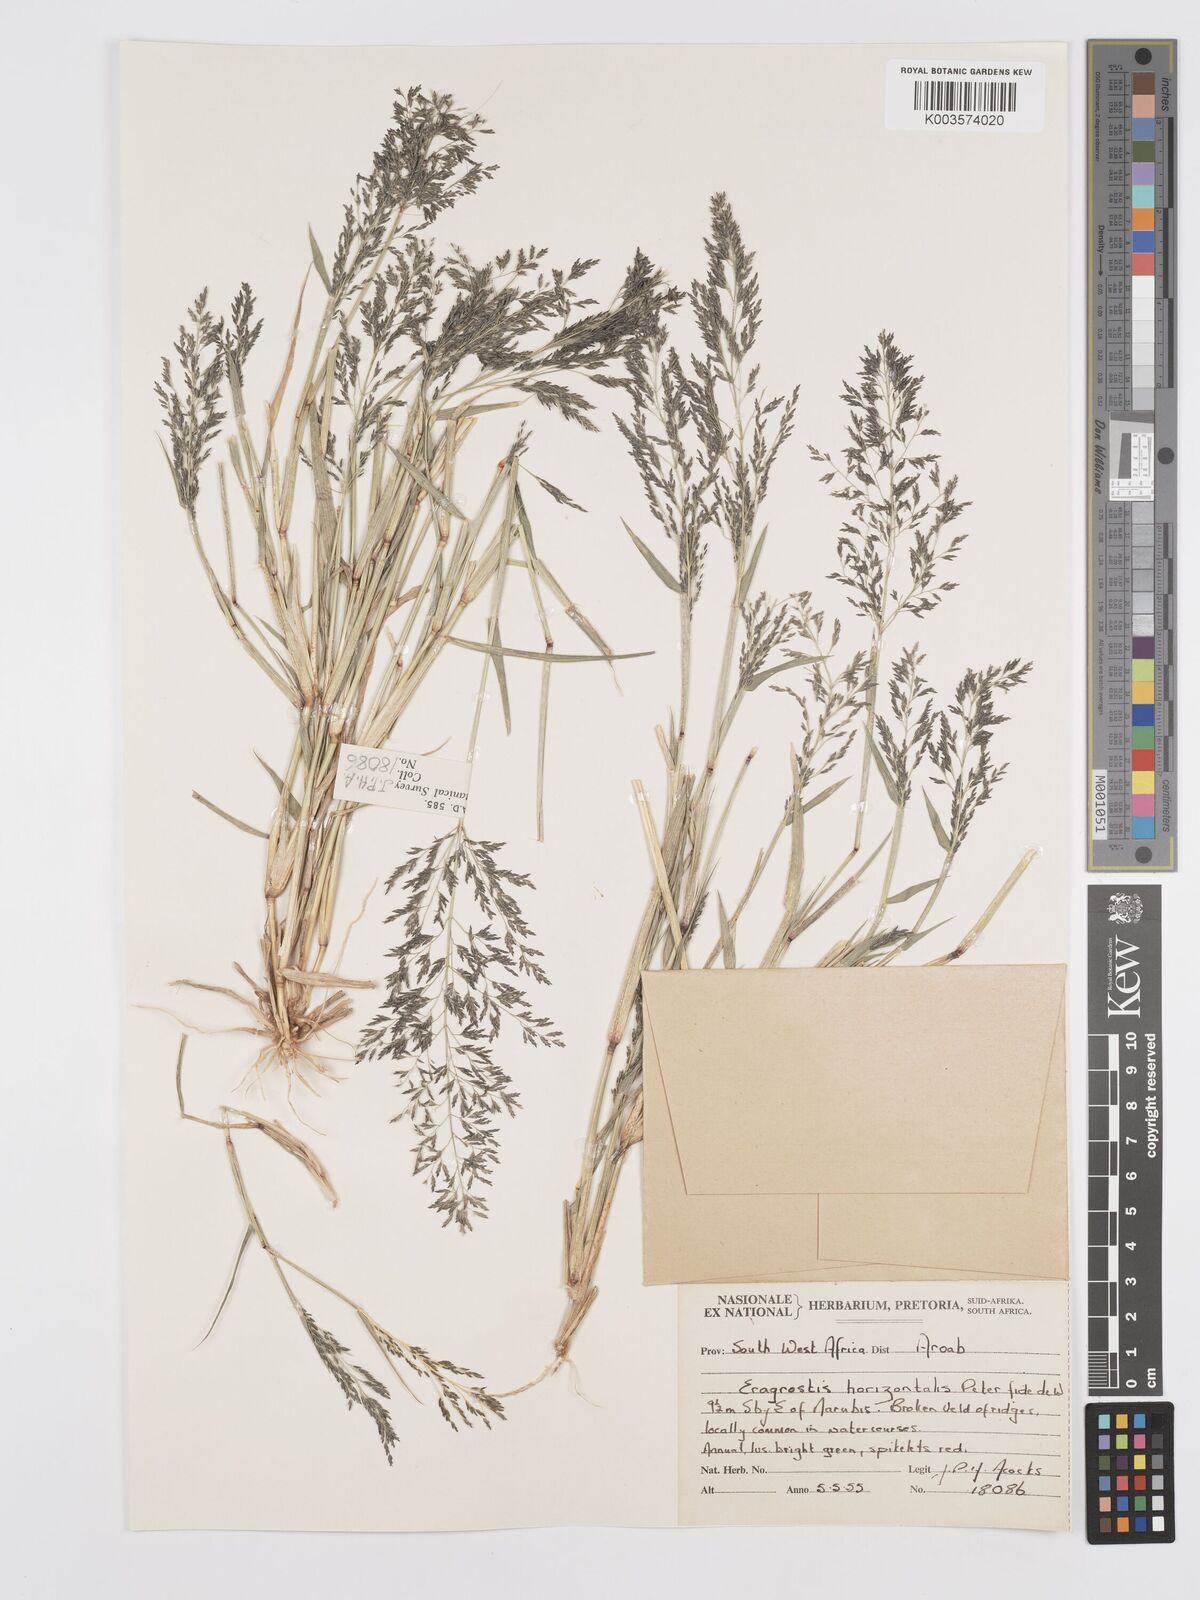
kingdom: Plantae
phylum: Tracheophyta
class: Liliopsida
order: Poales
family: Poaceae
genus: Eragrostis
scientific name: Eragrostis cylindriflora
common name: Cylinderflower lovegrass
